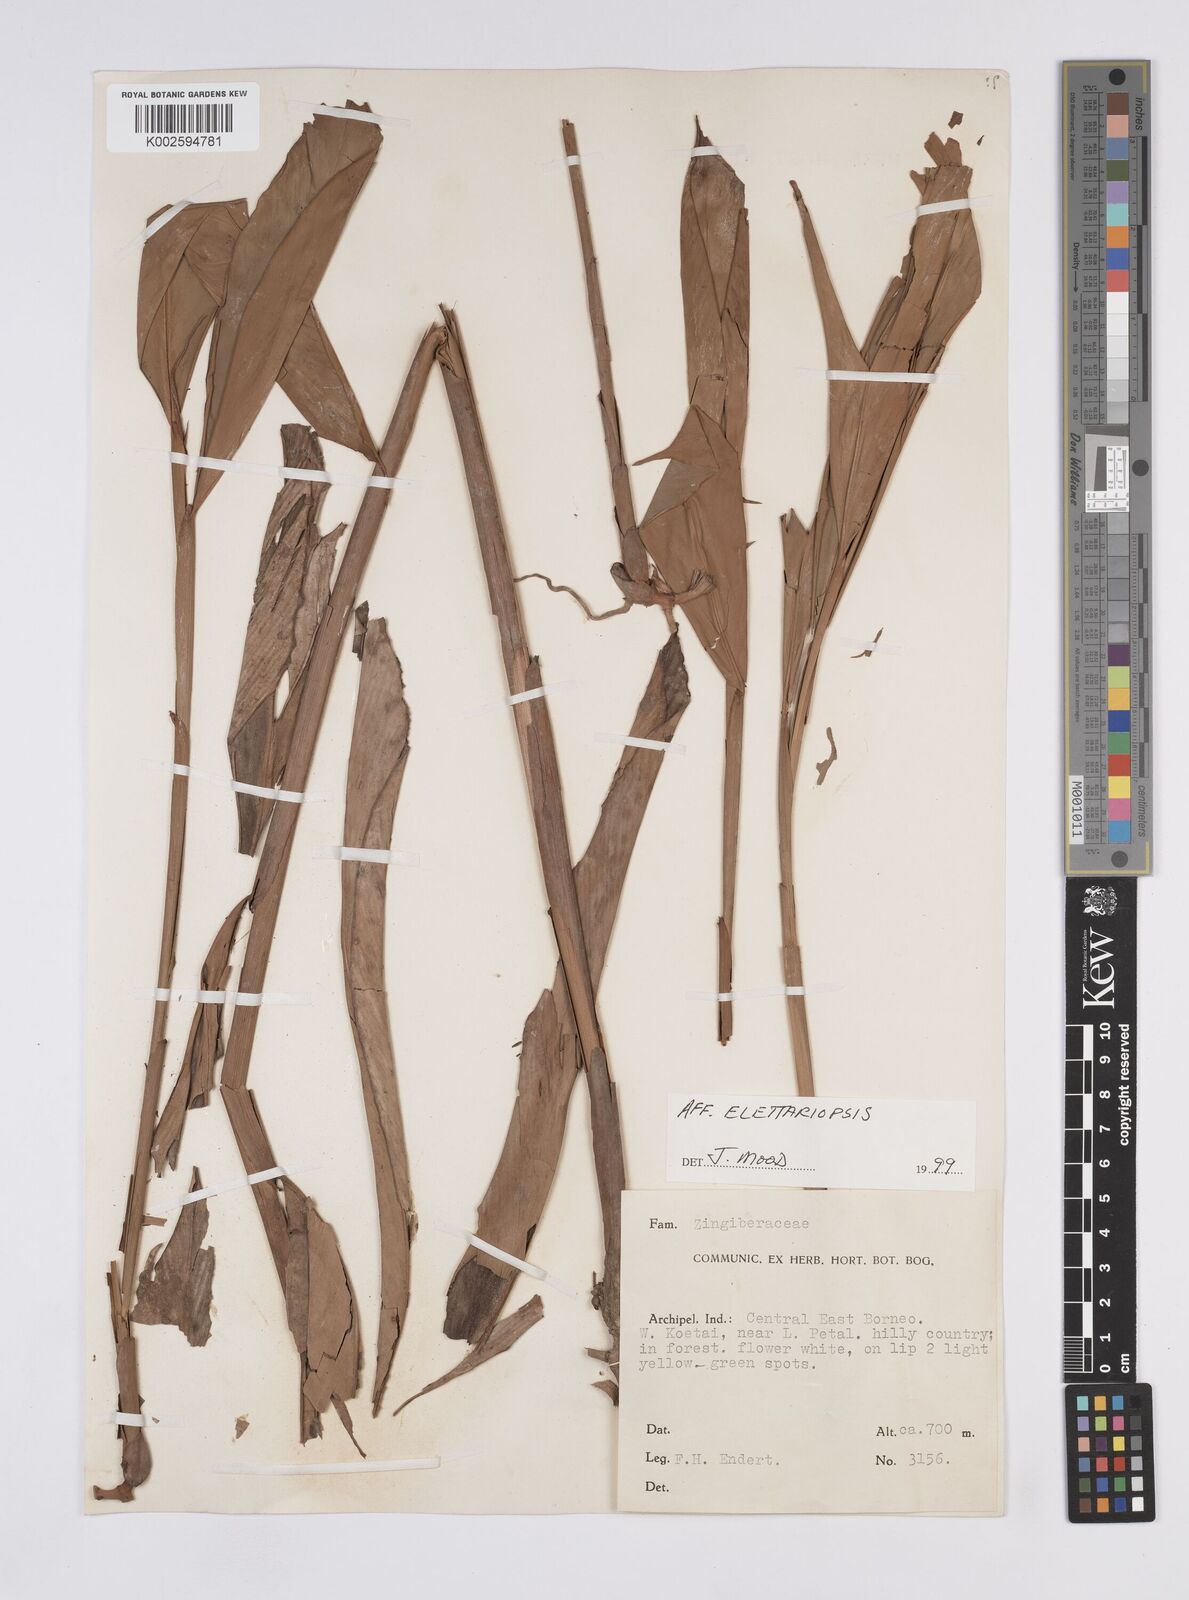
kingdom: Plantae
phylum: Tracheophyta
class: Liliopsida
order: Zingiberales
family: Zingiberaceae
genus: Amomum
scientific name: Amomum
